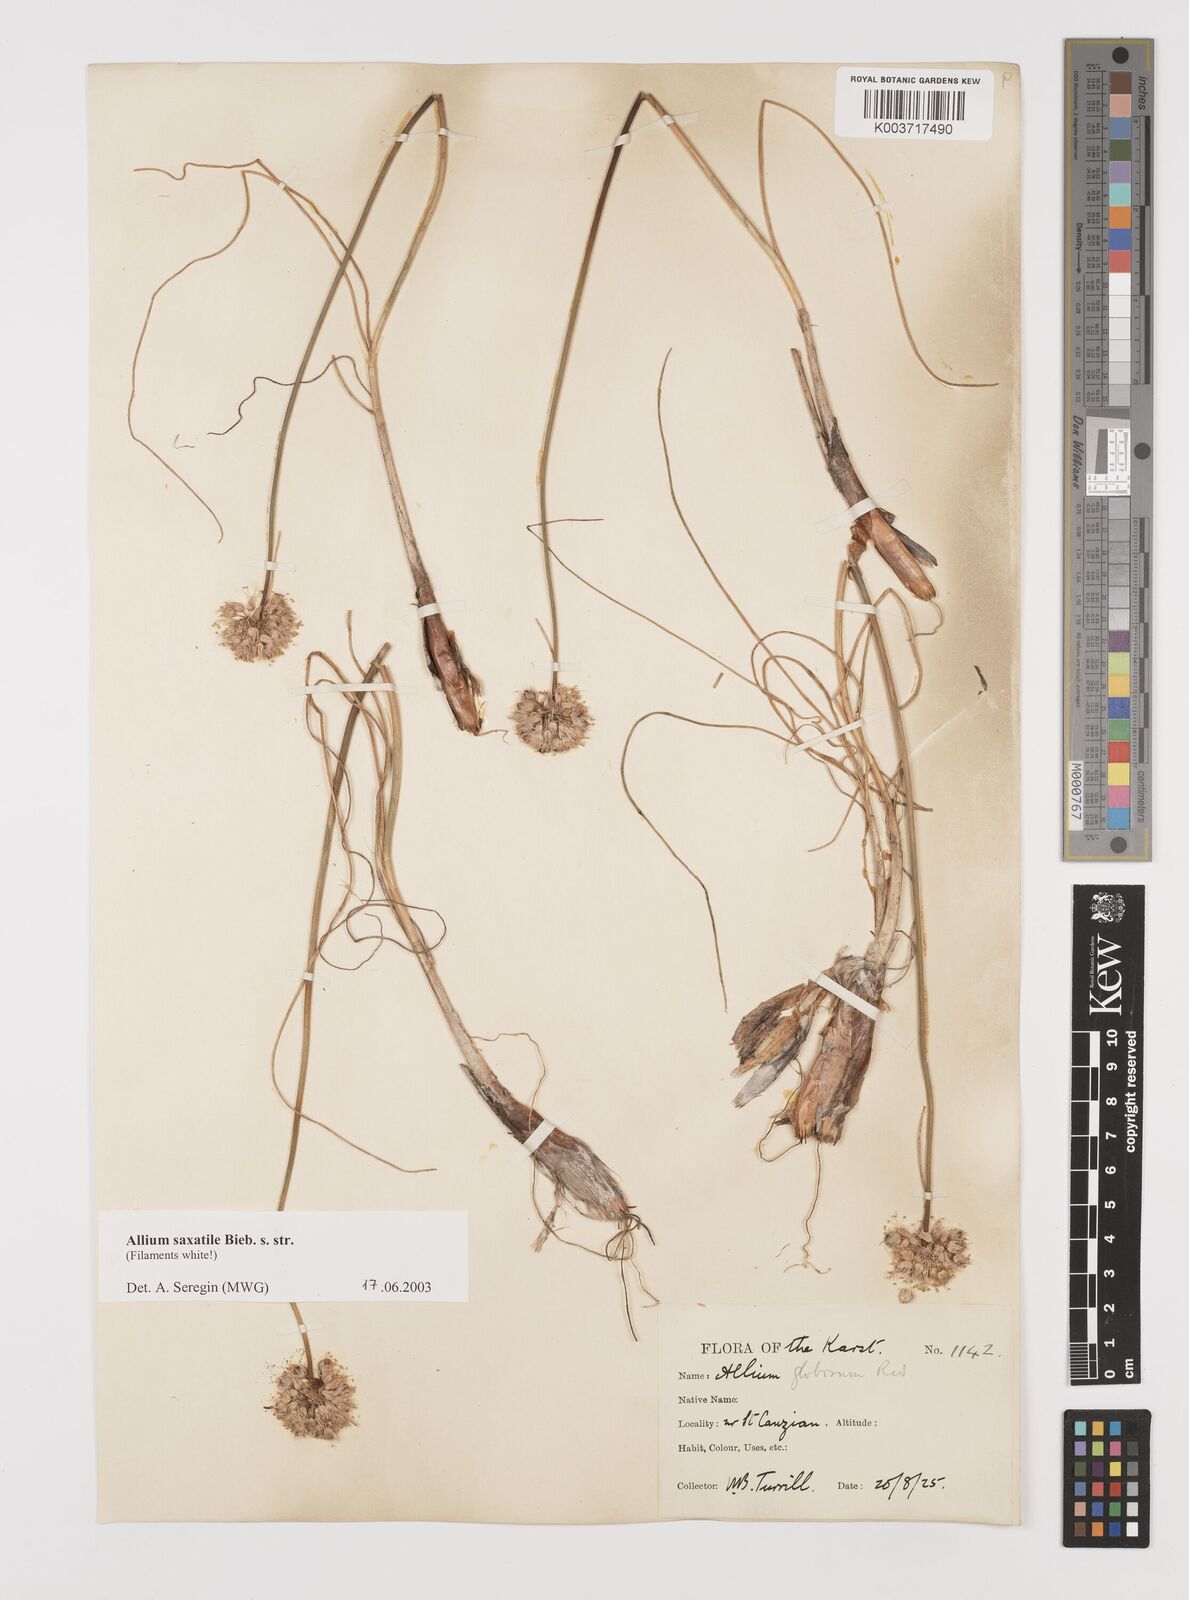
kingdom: Plantae
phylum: Tracheophyta
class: Liliopsida
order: Asparagales
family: Amaryllidaceae
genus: Allium
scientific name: Allium saxatile
